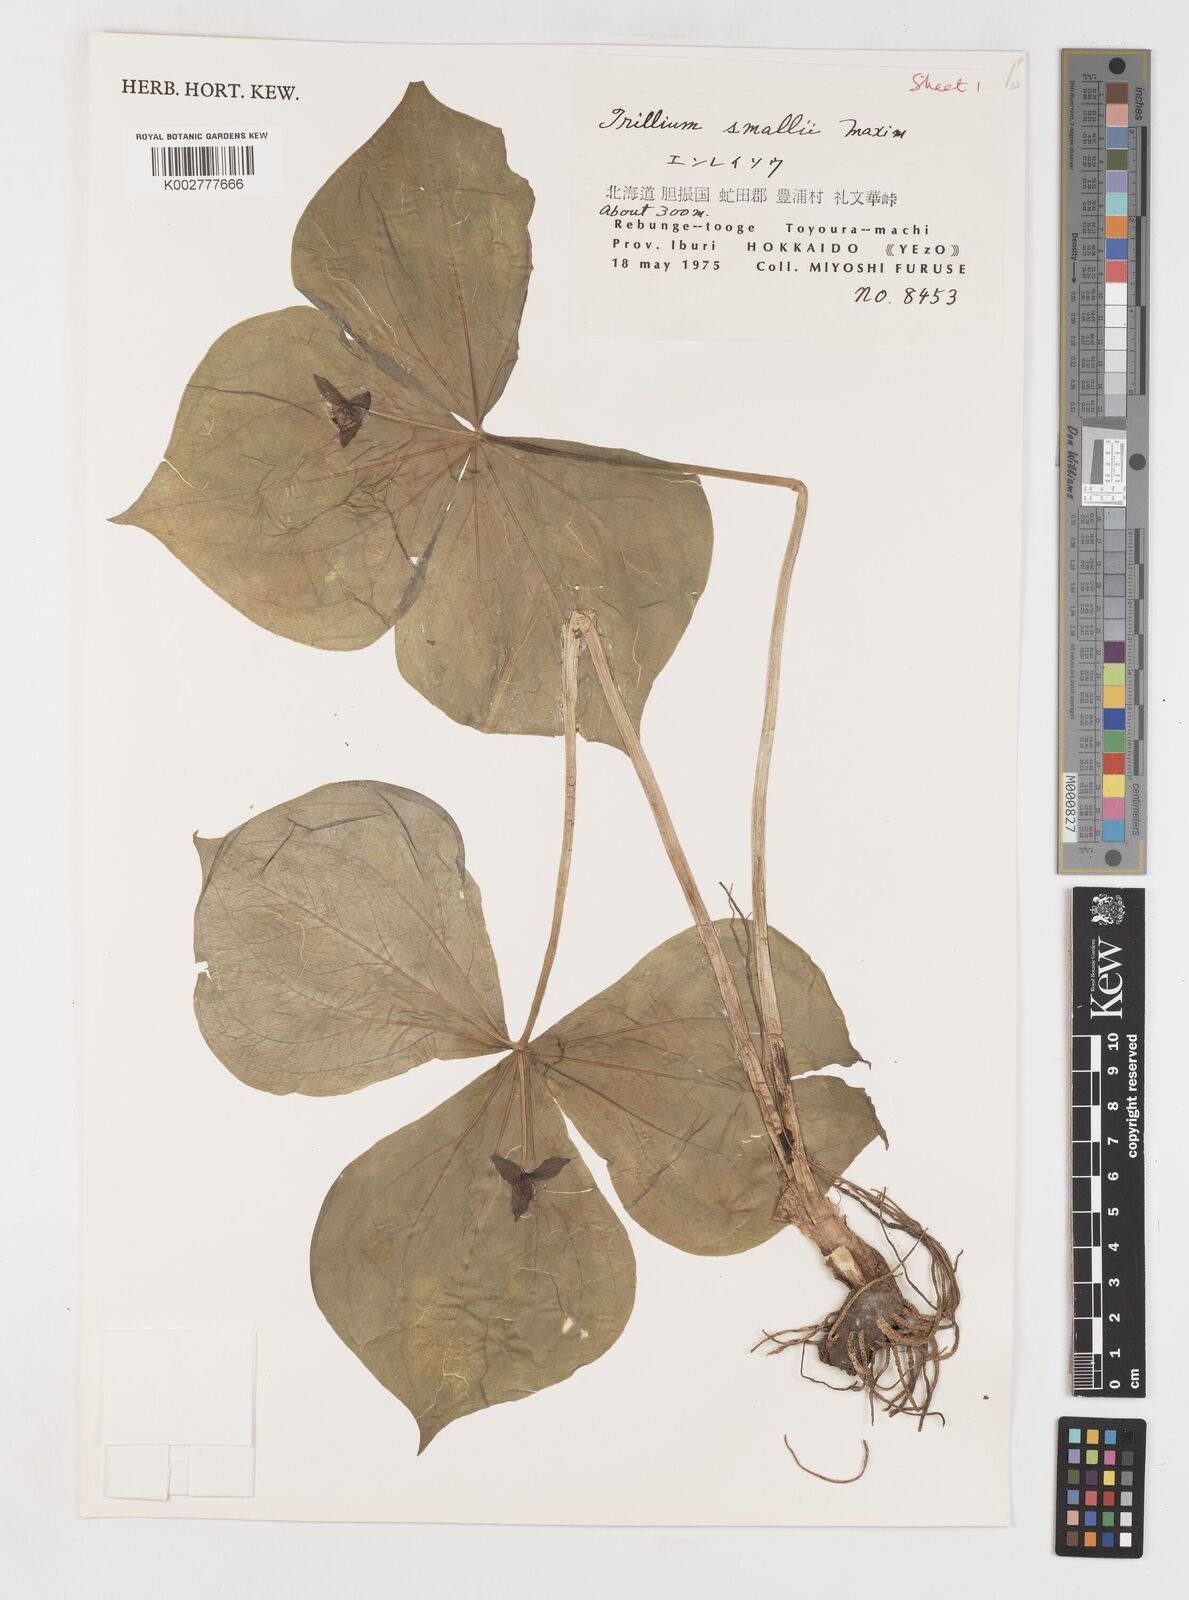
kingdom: Plantae
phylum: Tracheophyta
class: Liliopsida
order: Liliales
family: Melanthiaceae
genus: Trillium
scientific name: Trillium smallii
